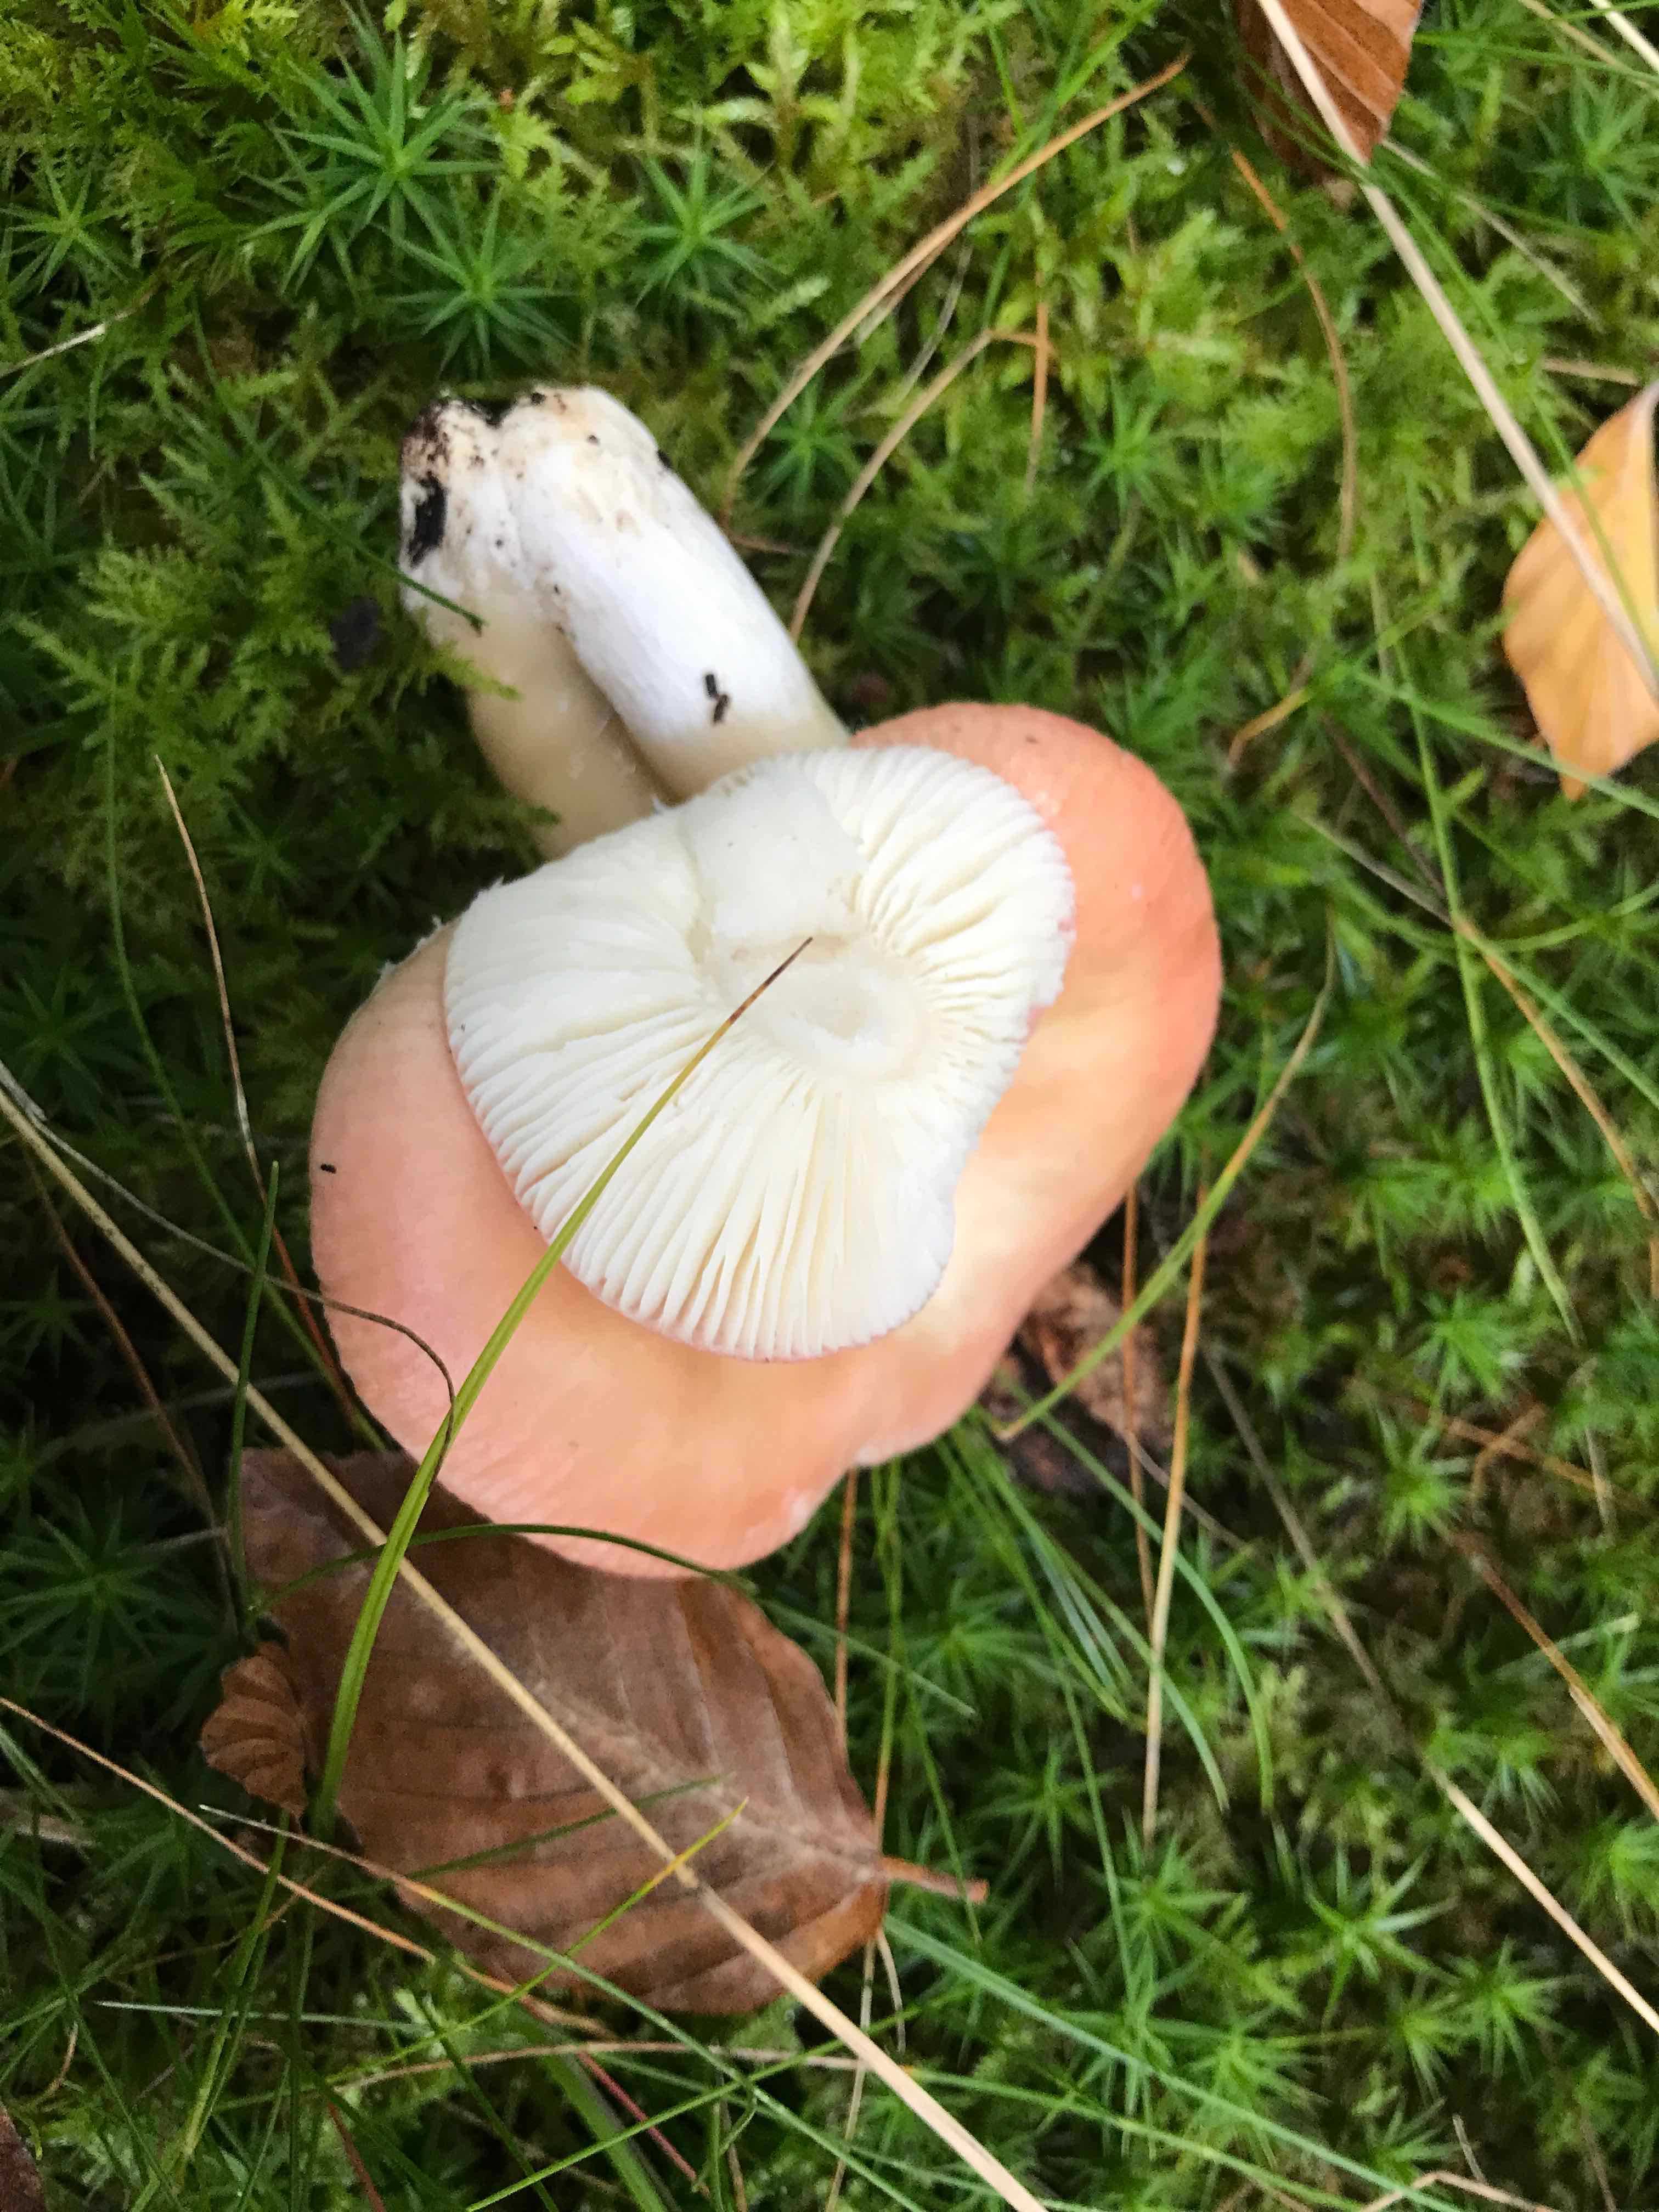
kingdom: Fungi
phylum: Basidiomycota
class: Agaricomycetes
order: Russulales
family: Russulaceae
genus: Russula
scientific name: Russula
